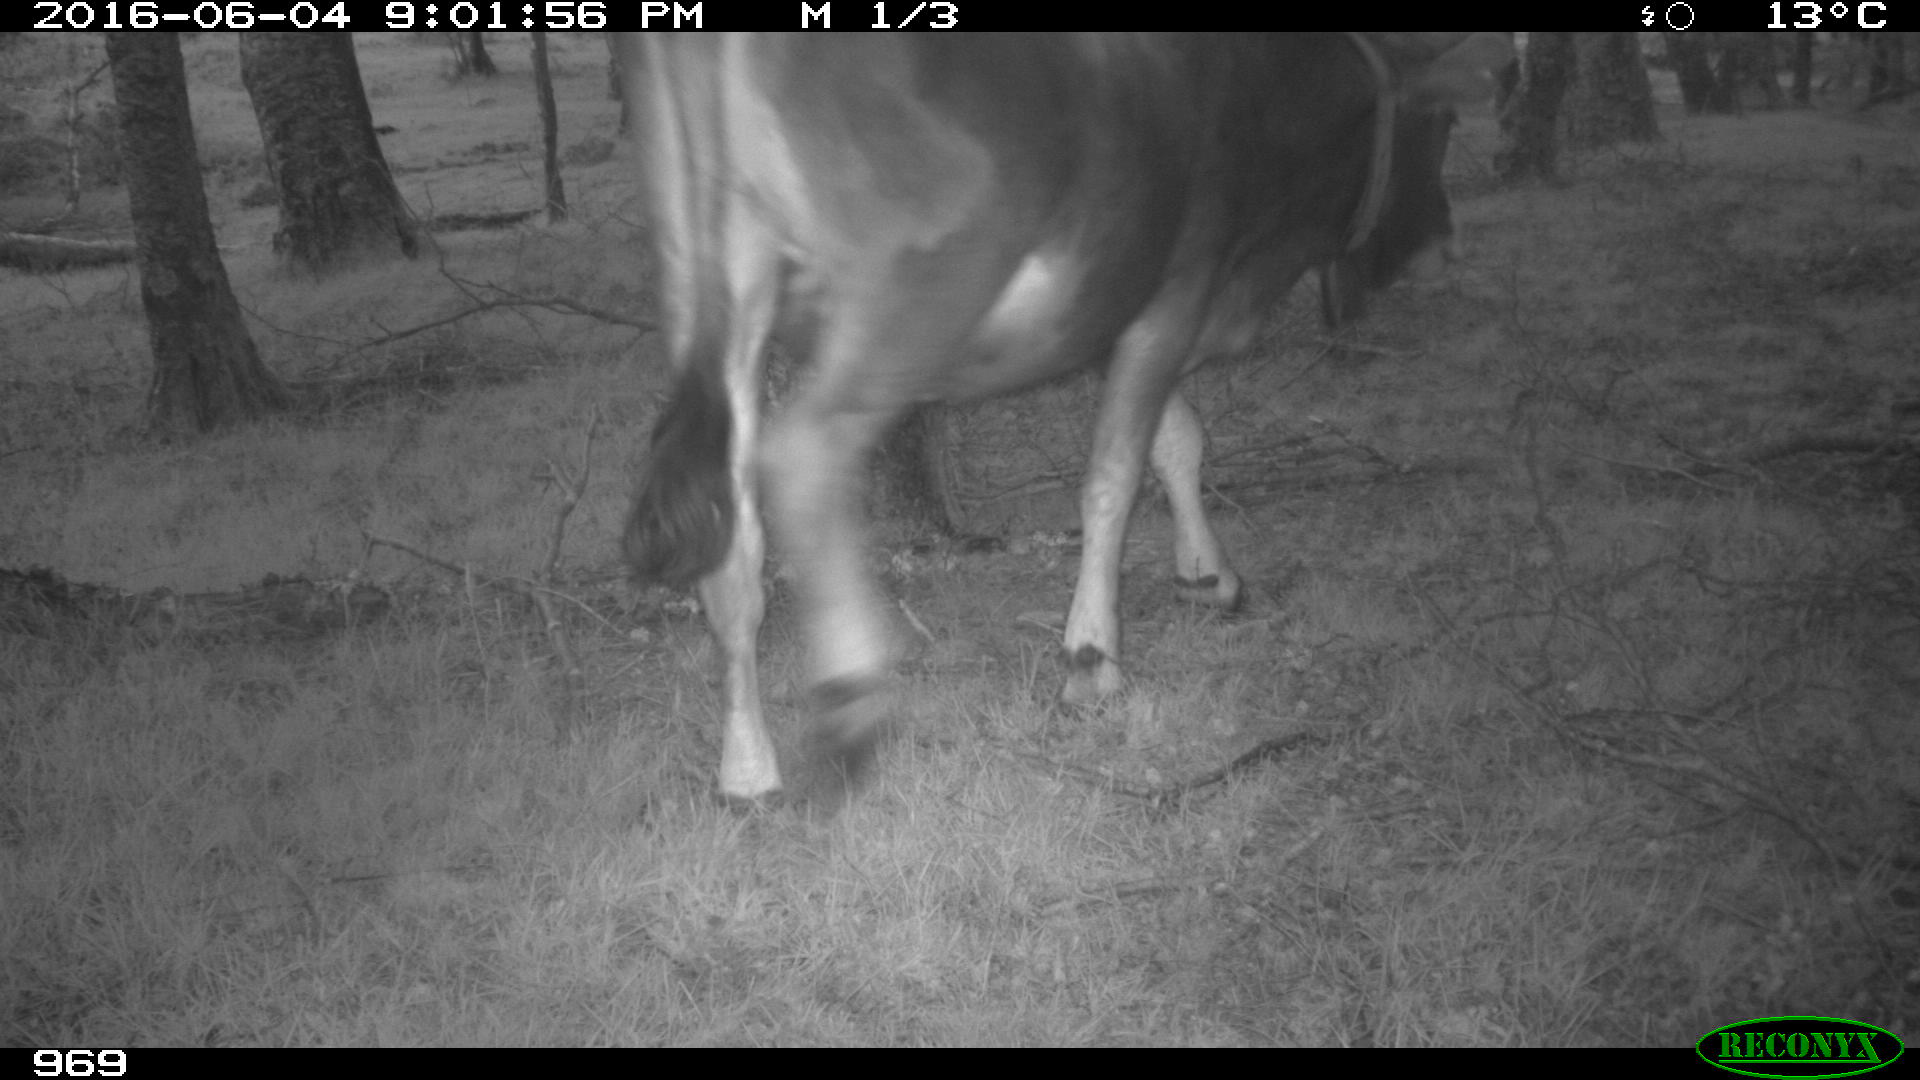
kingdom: Animalia
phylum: Chordata
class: Mammalia
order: Artiodactyla
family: Bovidae
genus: Bos
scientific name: Bos taurus
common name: Domesticated cattle
